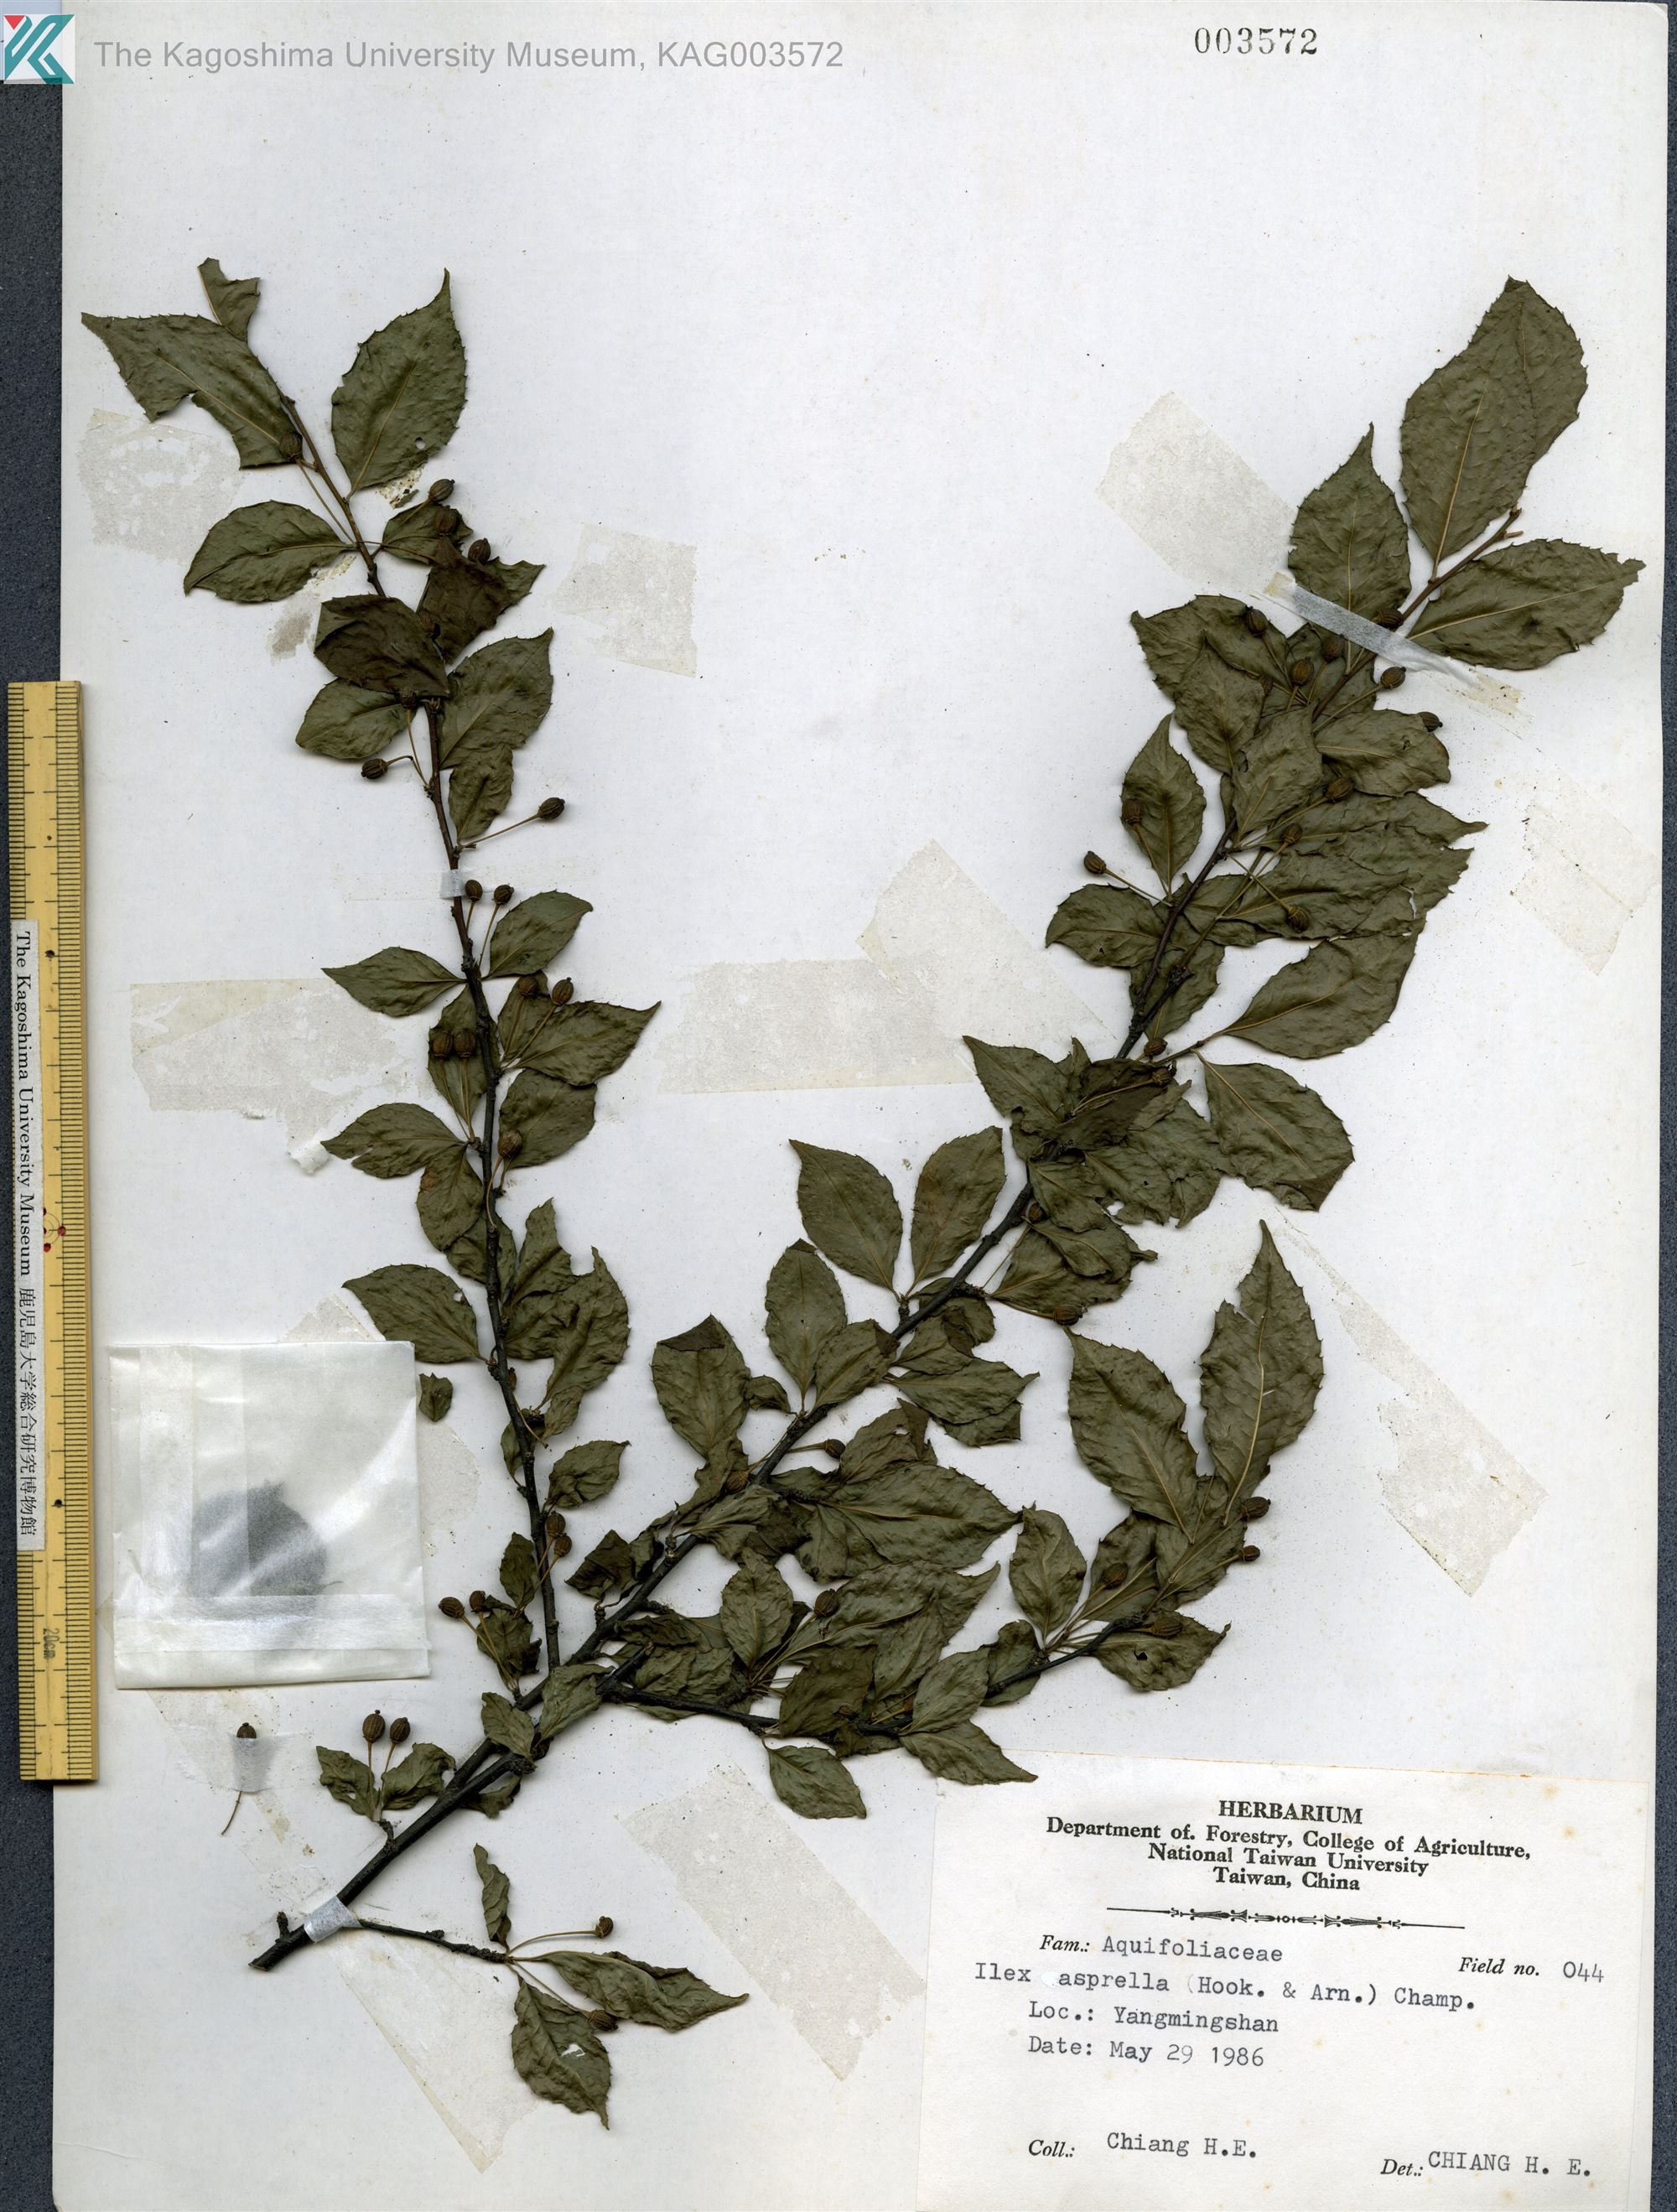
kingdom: Plantae
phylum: Tracheophyta
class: Magnoliopsida
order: Aquifoliales
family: Aquifoliaceae
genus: Ilex
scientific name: Ilex asprella
